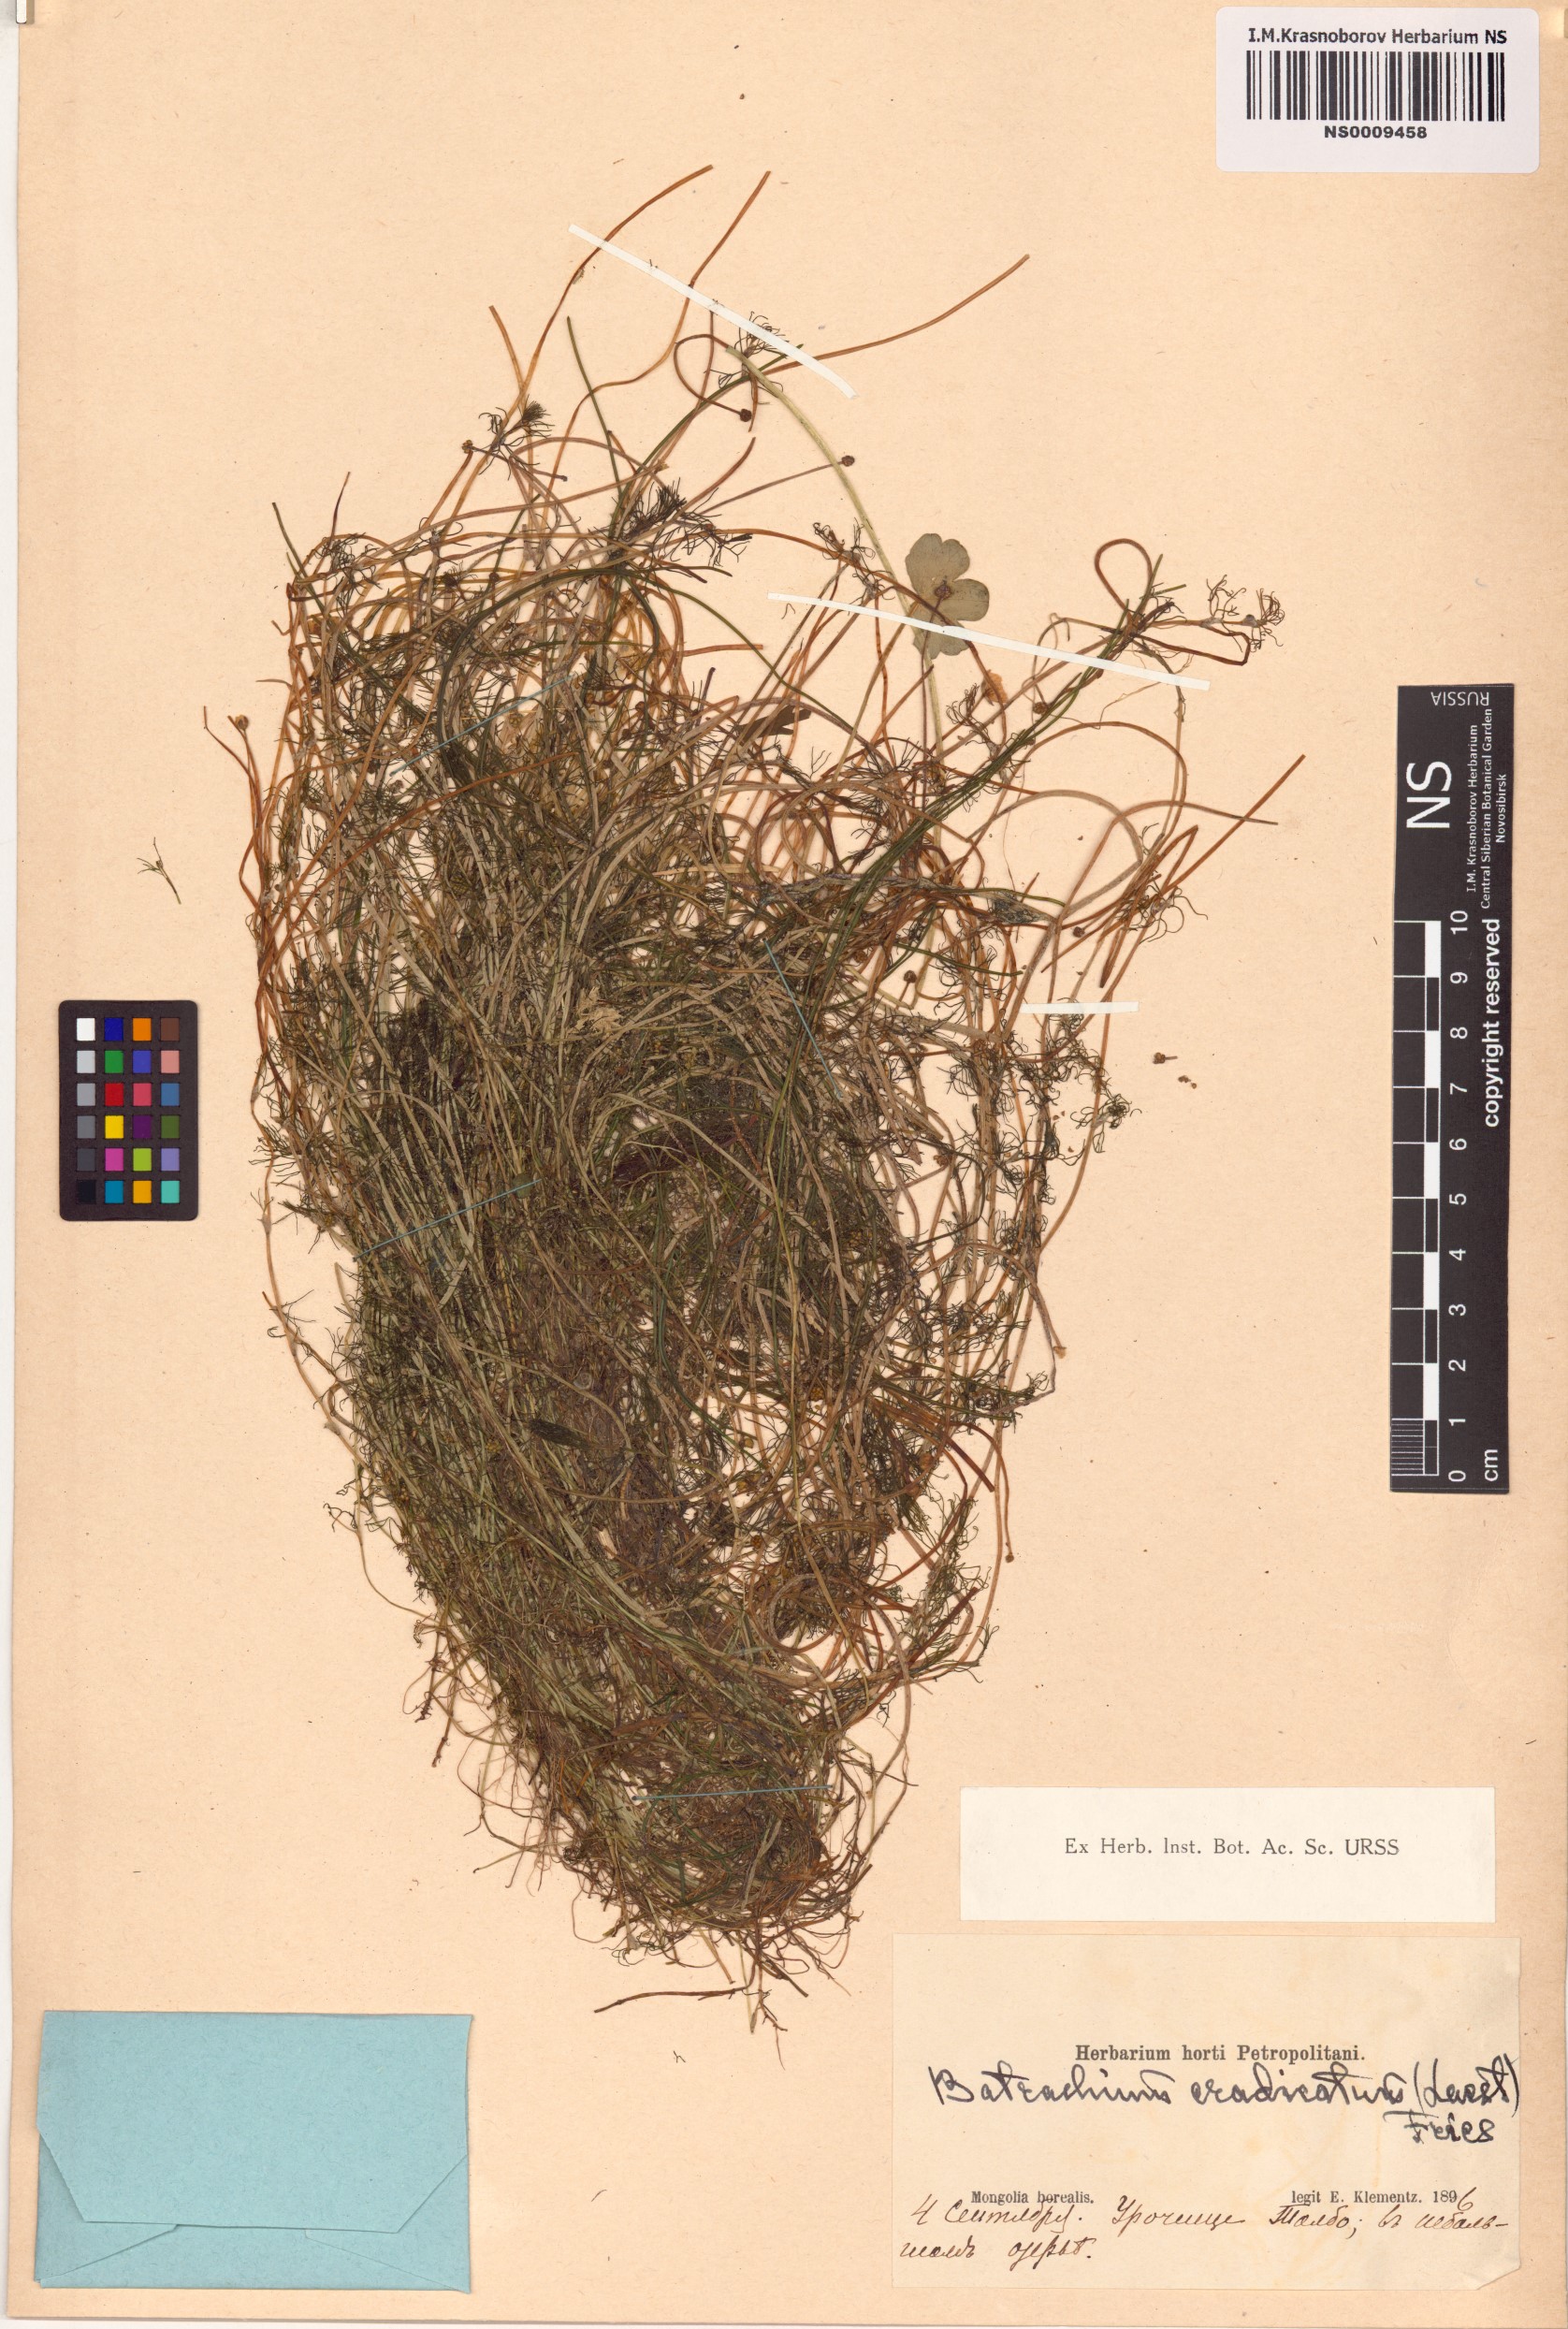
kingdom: Plantae
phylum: Tracheophyta
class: Magnoliopsida
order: Ranunculales
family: Ranunculaceae
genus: Ranunculus
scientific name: Ranunculus confervoides
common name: Delicate buttercup
